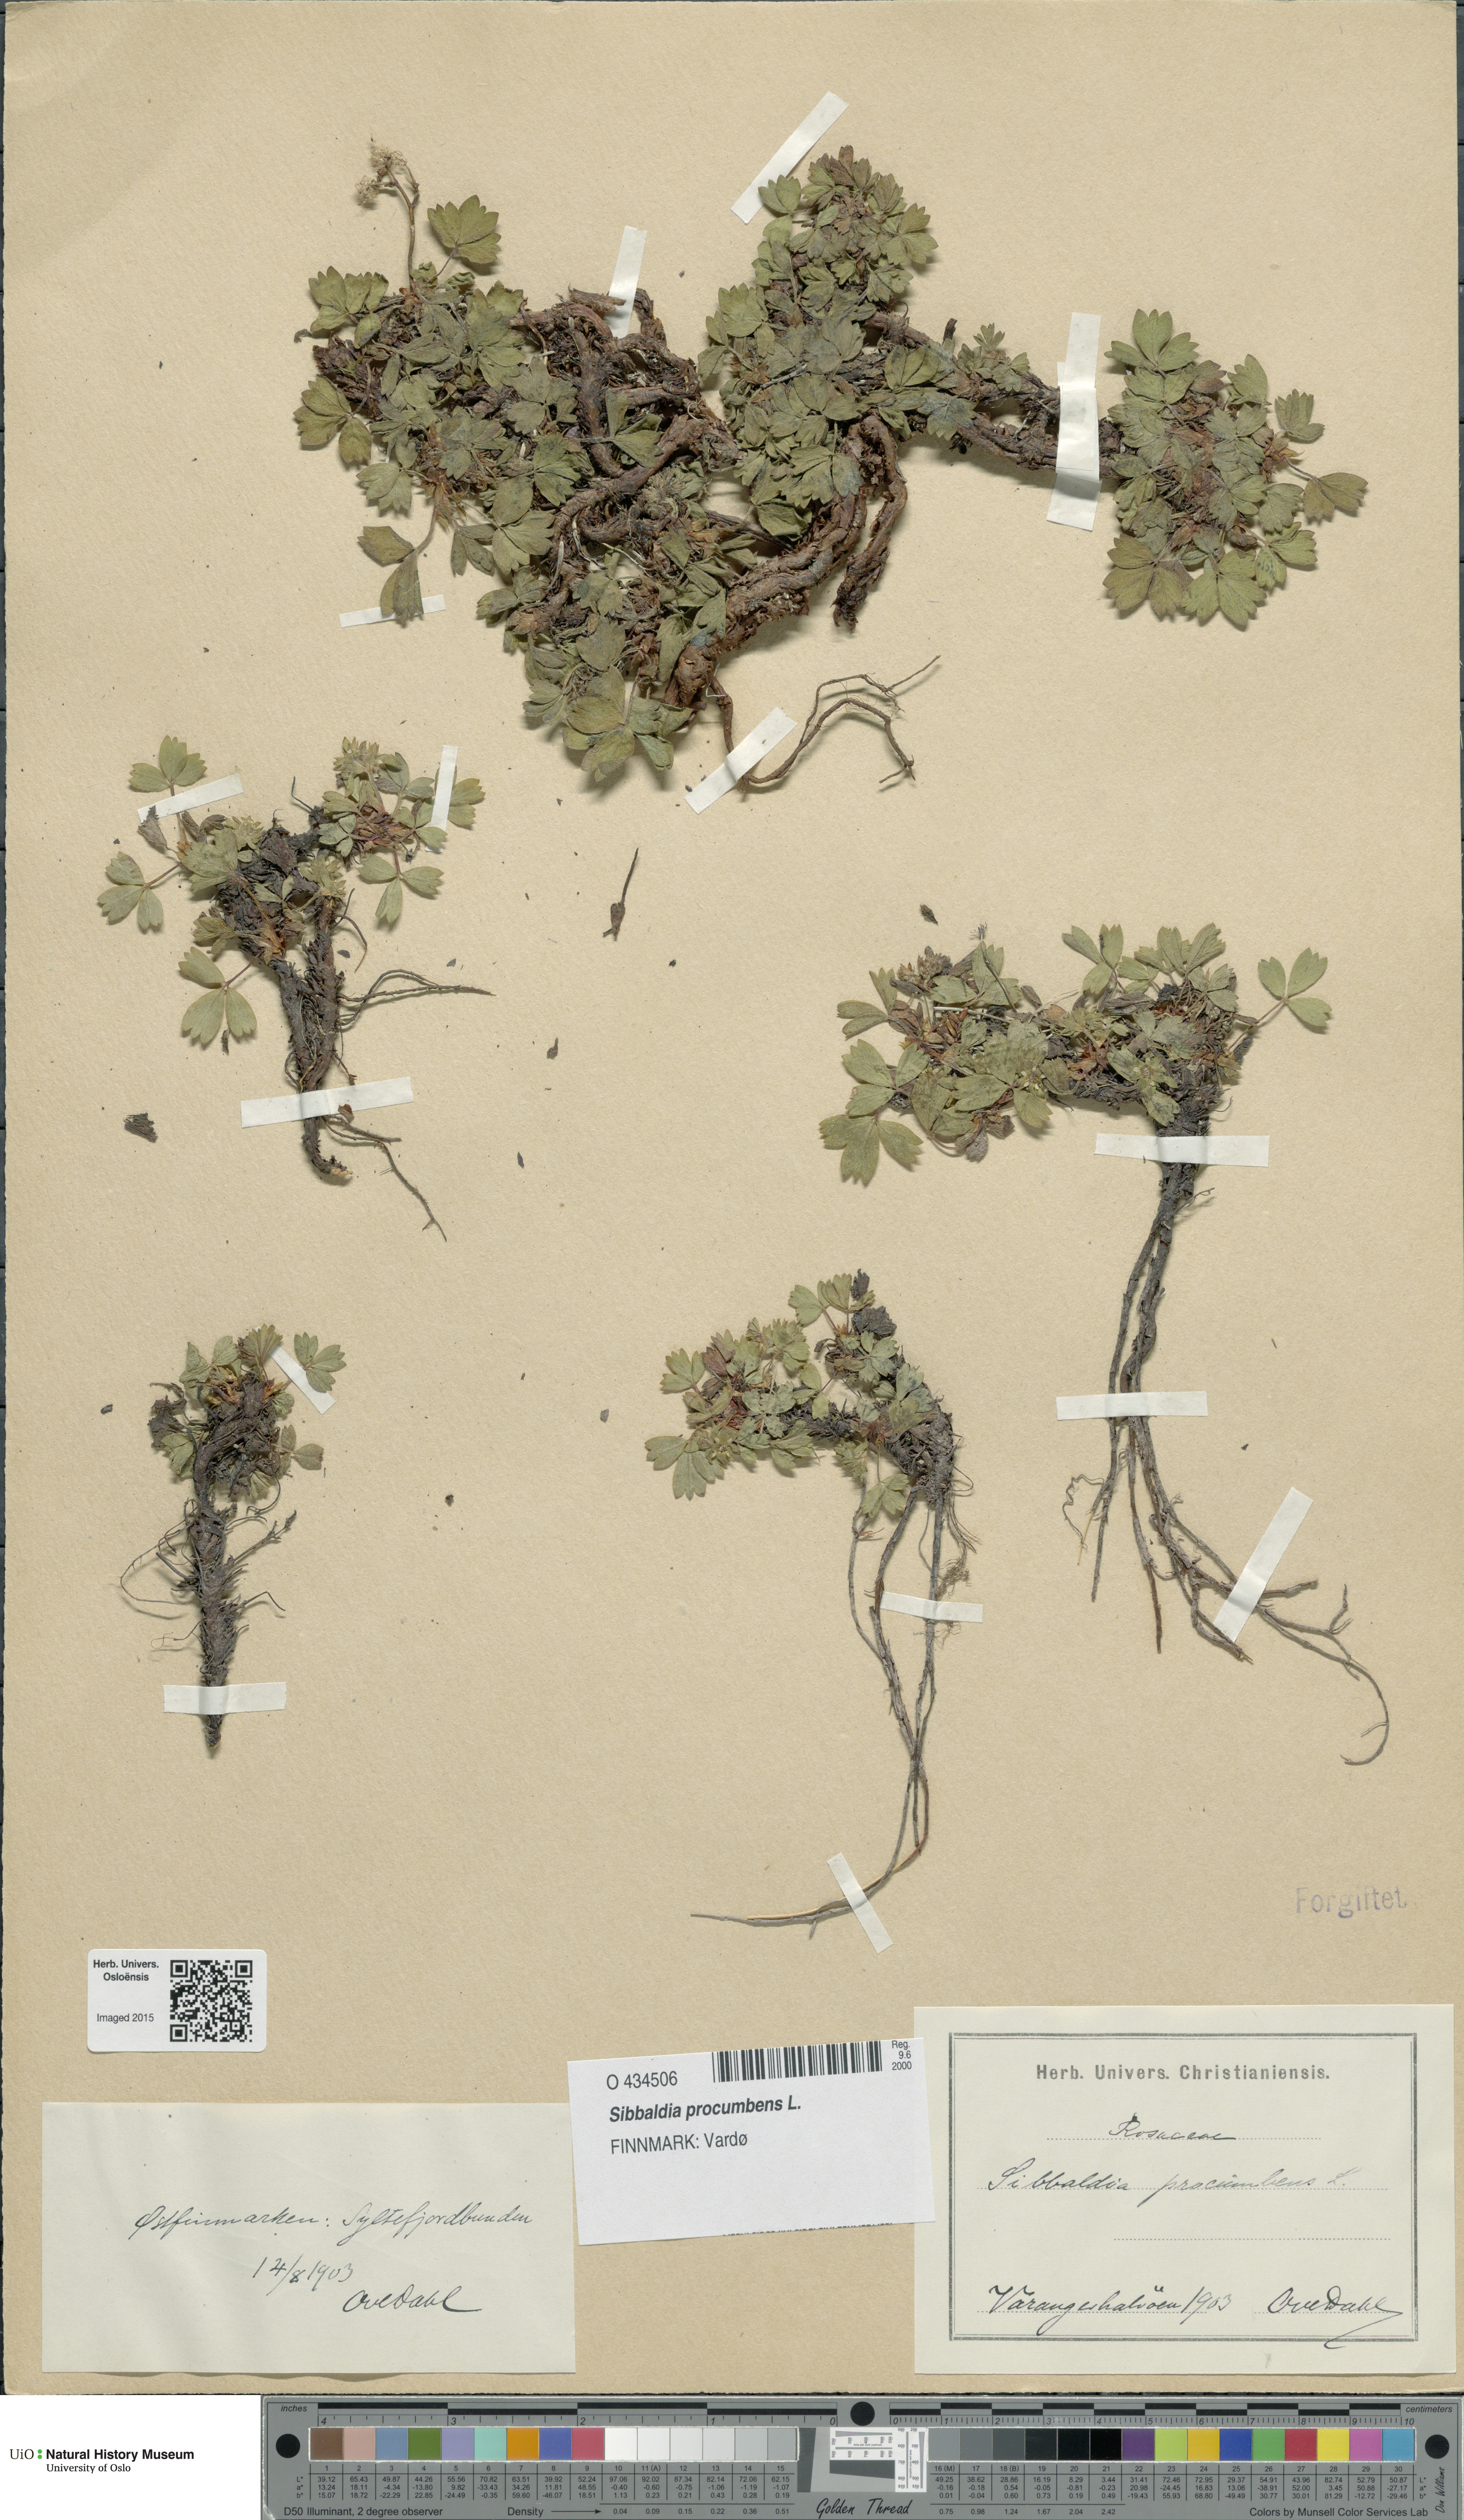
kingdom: Plantae
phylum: Tracheophyta
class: Magnoliopsida
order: Rosales
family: Rosaceae
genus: Sibbaldia
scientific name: Sibbaldia procumbens
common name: Creeping sibbaldia
